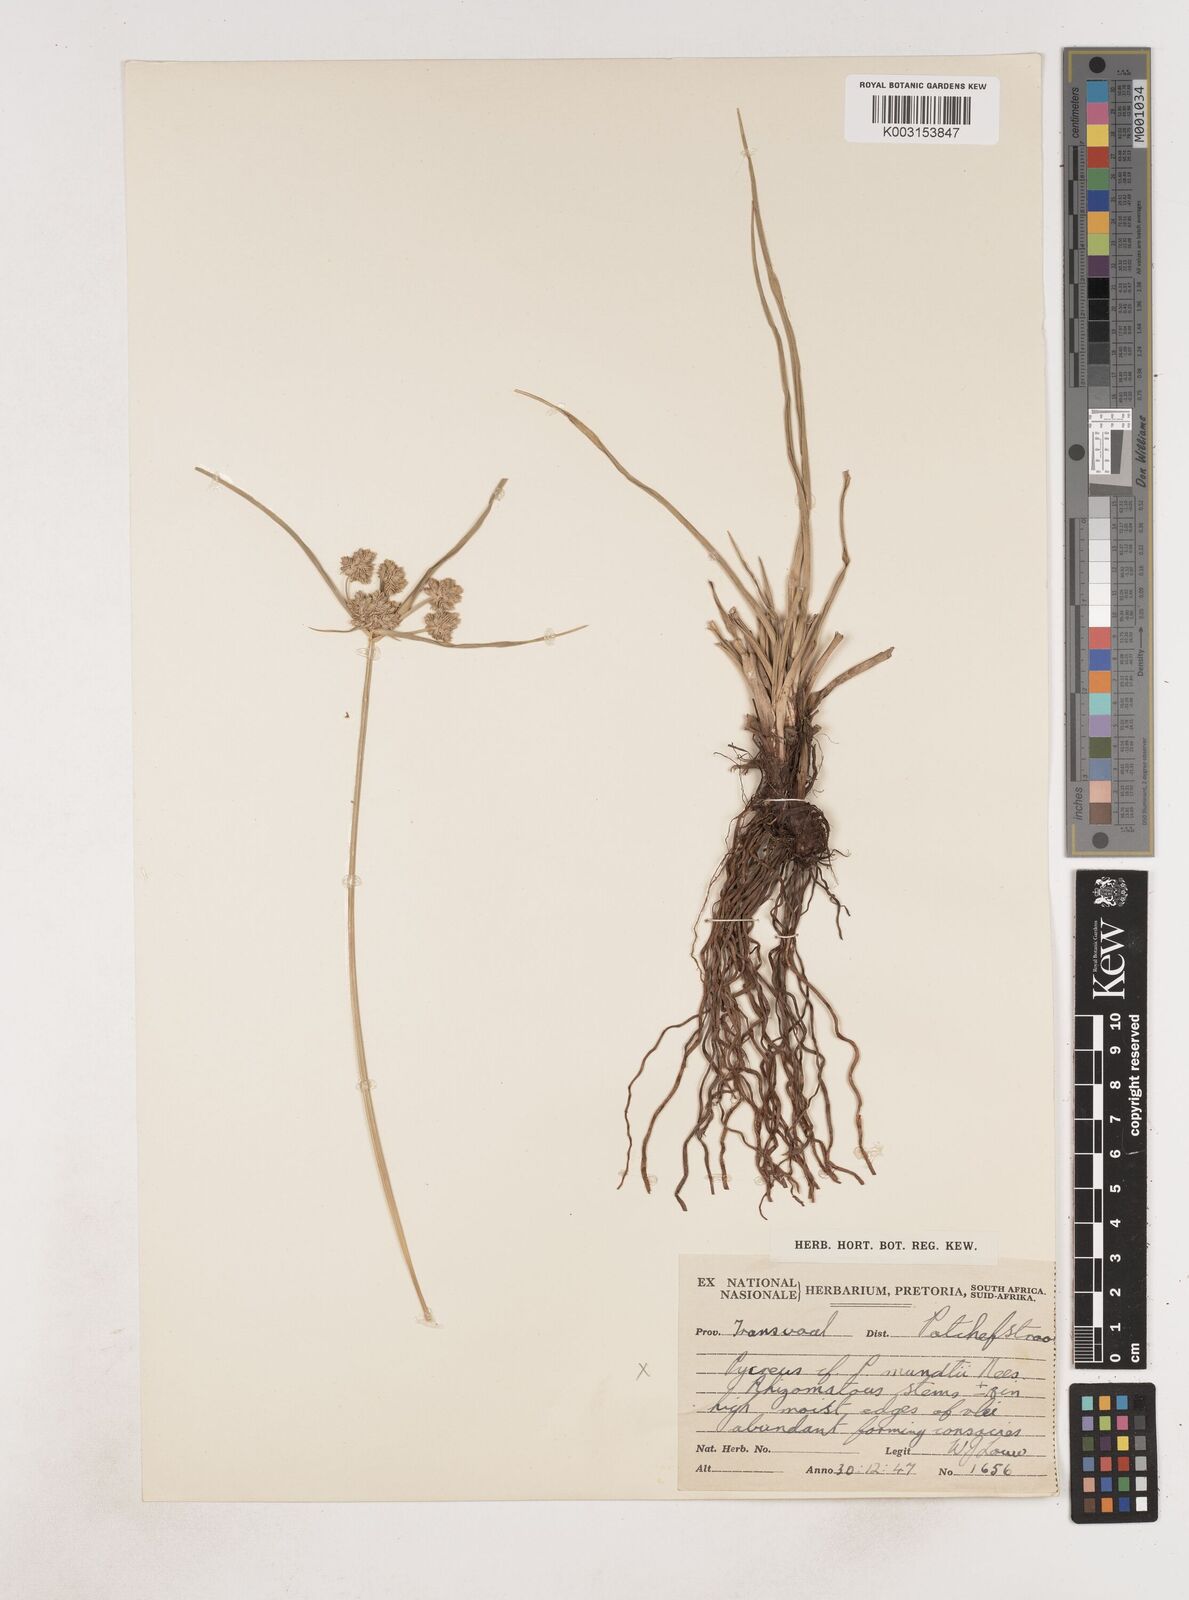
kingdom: Plantae
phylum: Tracheophyta
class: Liliopsida
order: Poales
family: Cyperaceae
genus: Cyperus
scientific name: Cyperus
